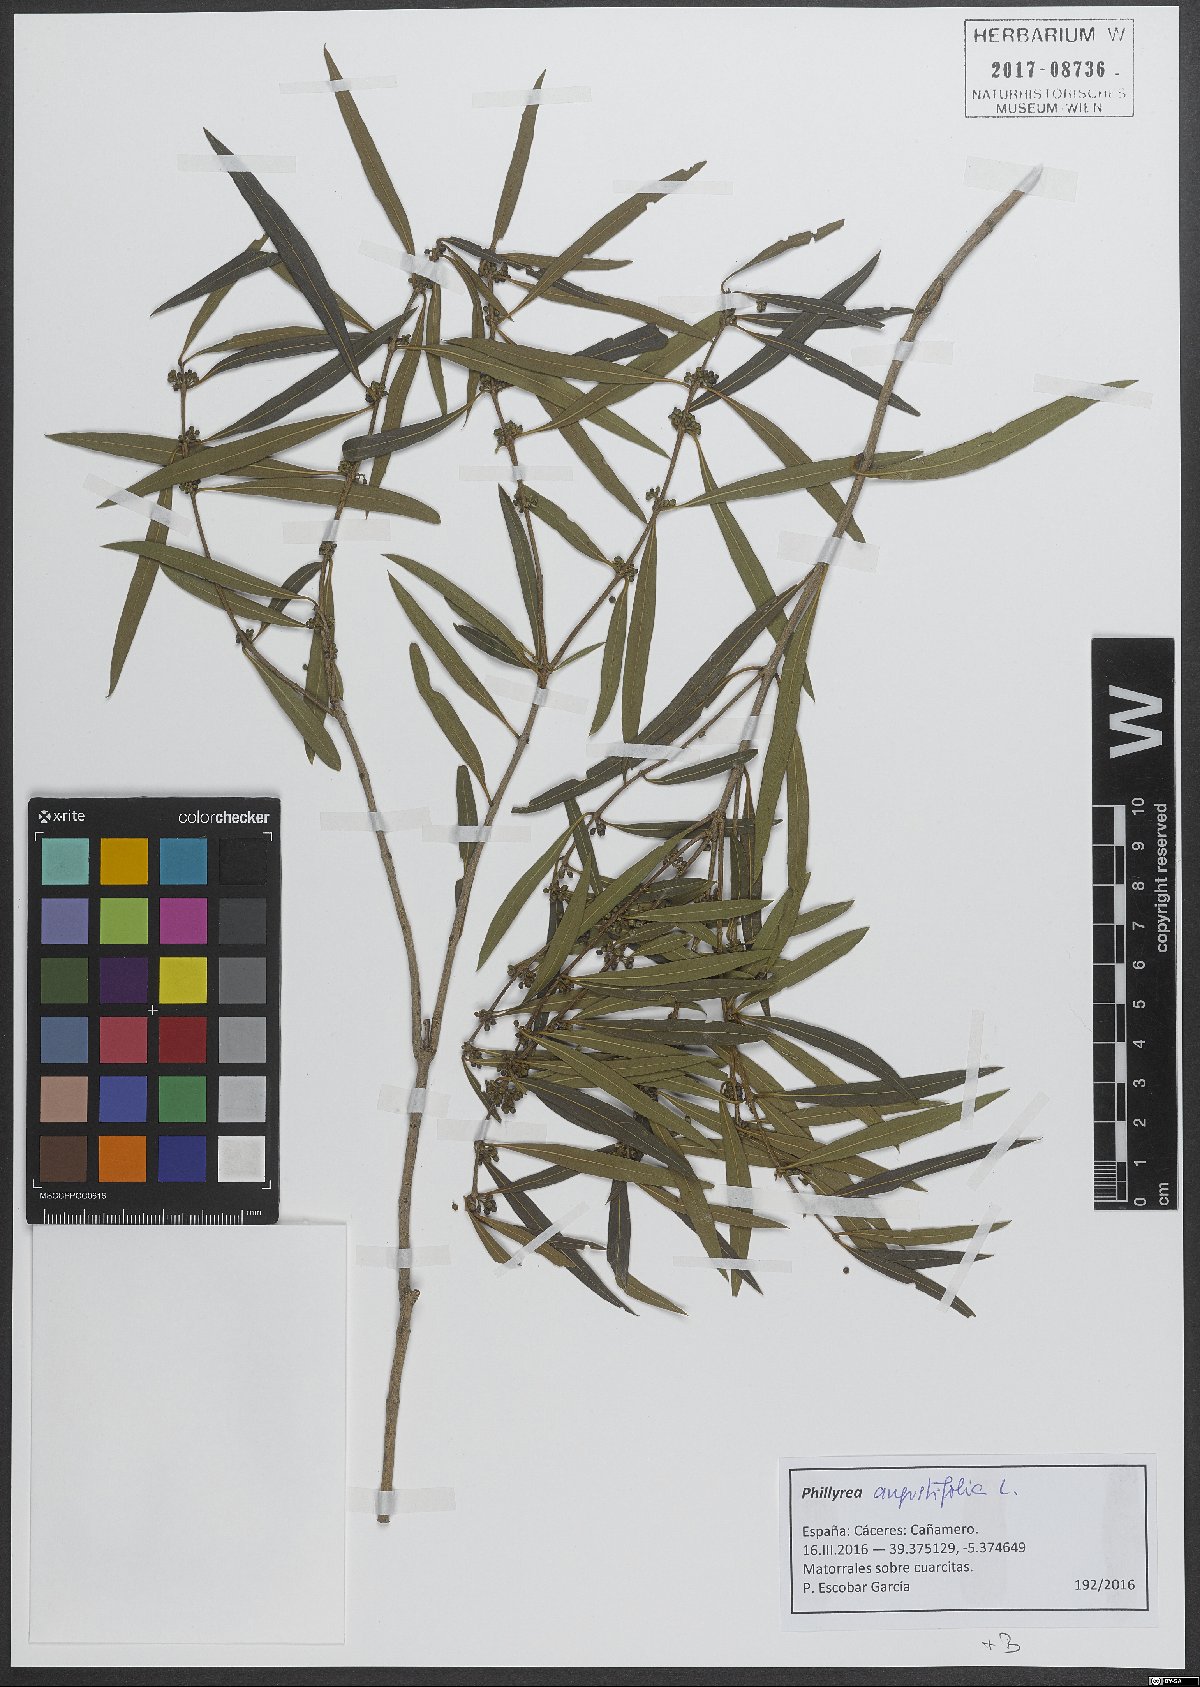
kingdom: Plantae
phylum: Tracheophyta
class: Magnoliopsida
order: Lamiales
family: Oleaceae
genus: Phillyrea
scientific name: Phillyrea angustifolia
